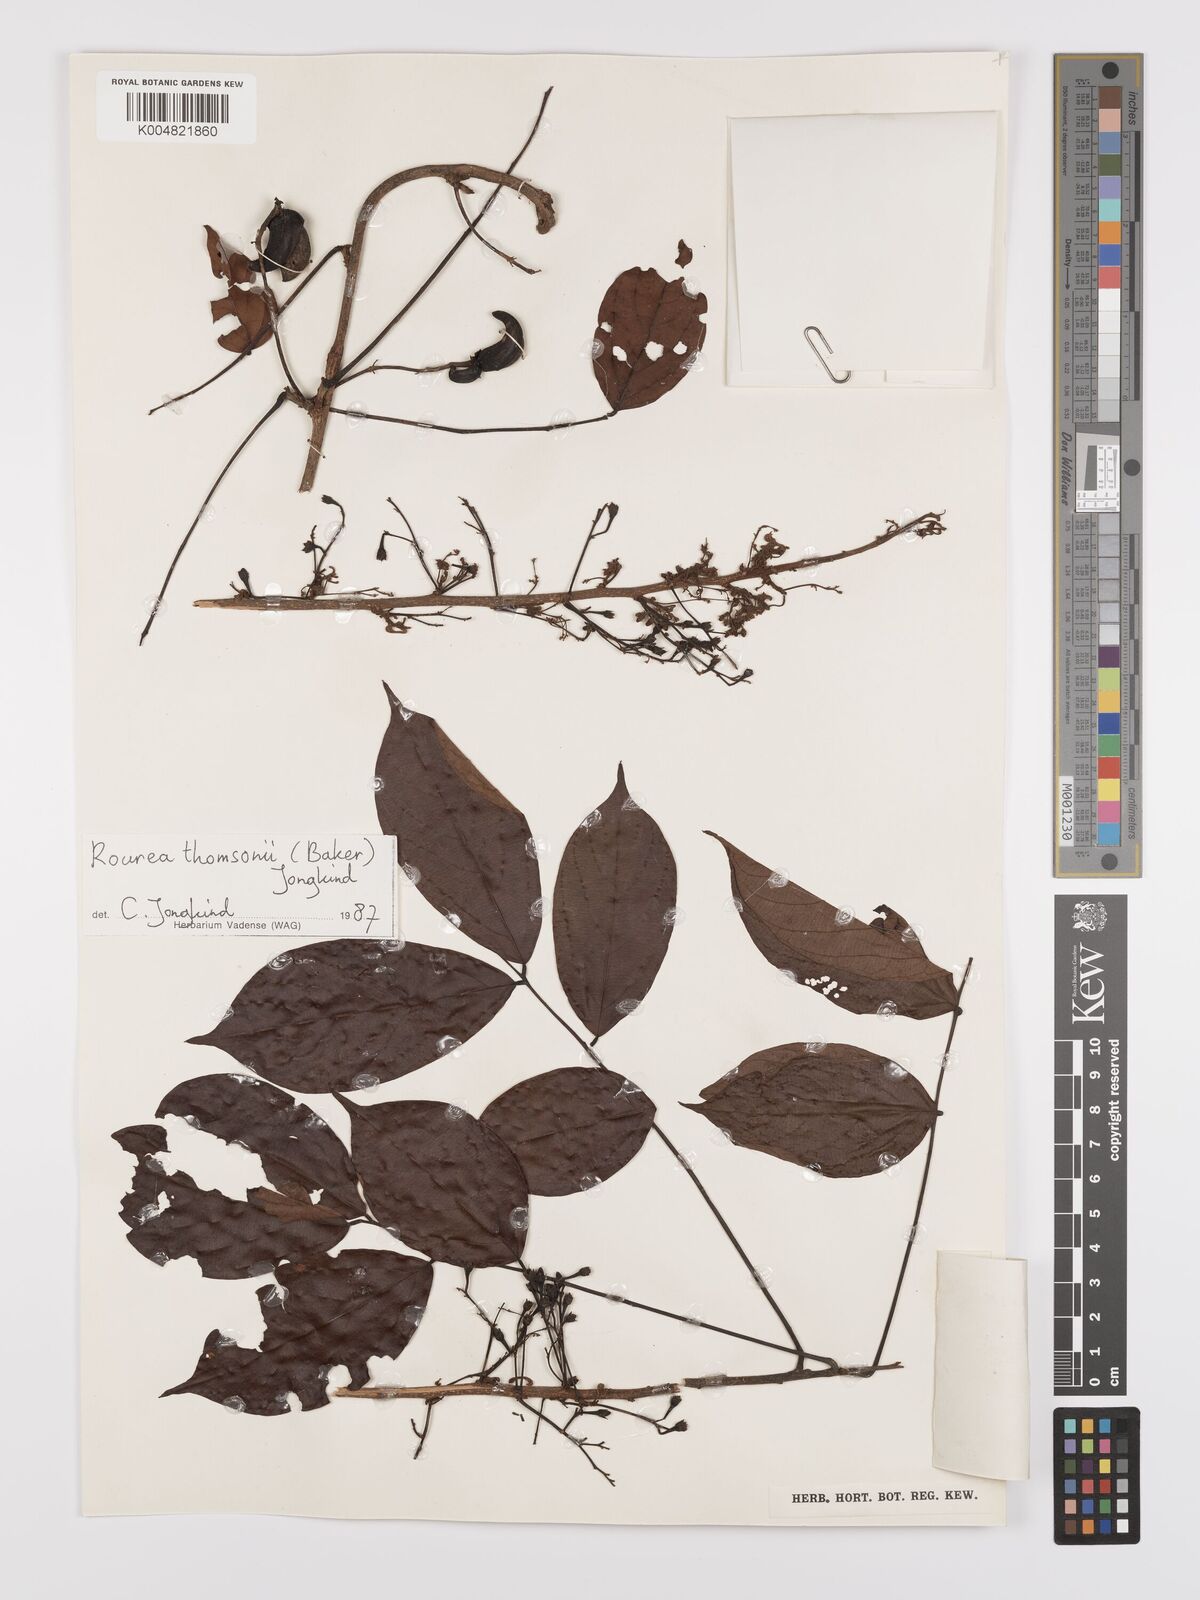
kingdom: Plantae
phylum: Tracheophyta
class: Magnoliopsida
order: Oxalidales
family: Connaraceae
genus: Rourea
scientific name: Rourea pinnata
